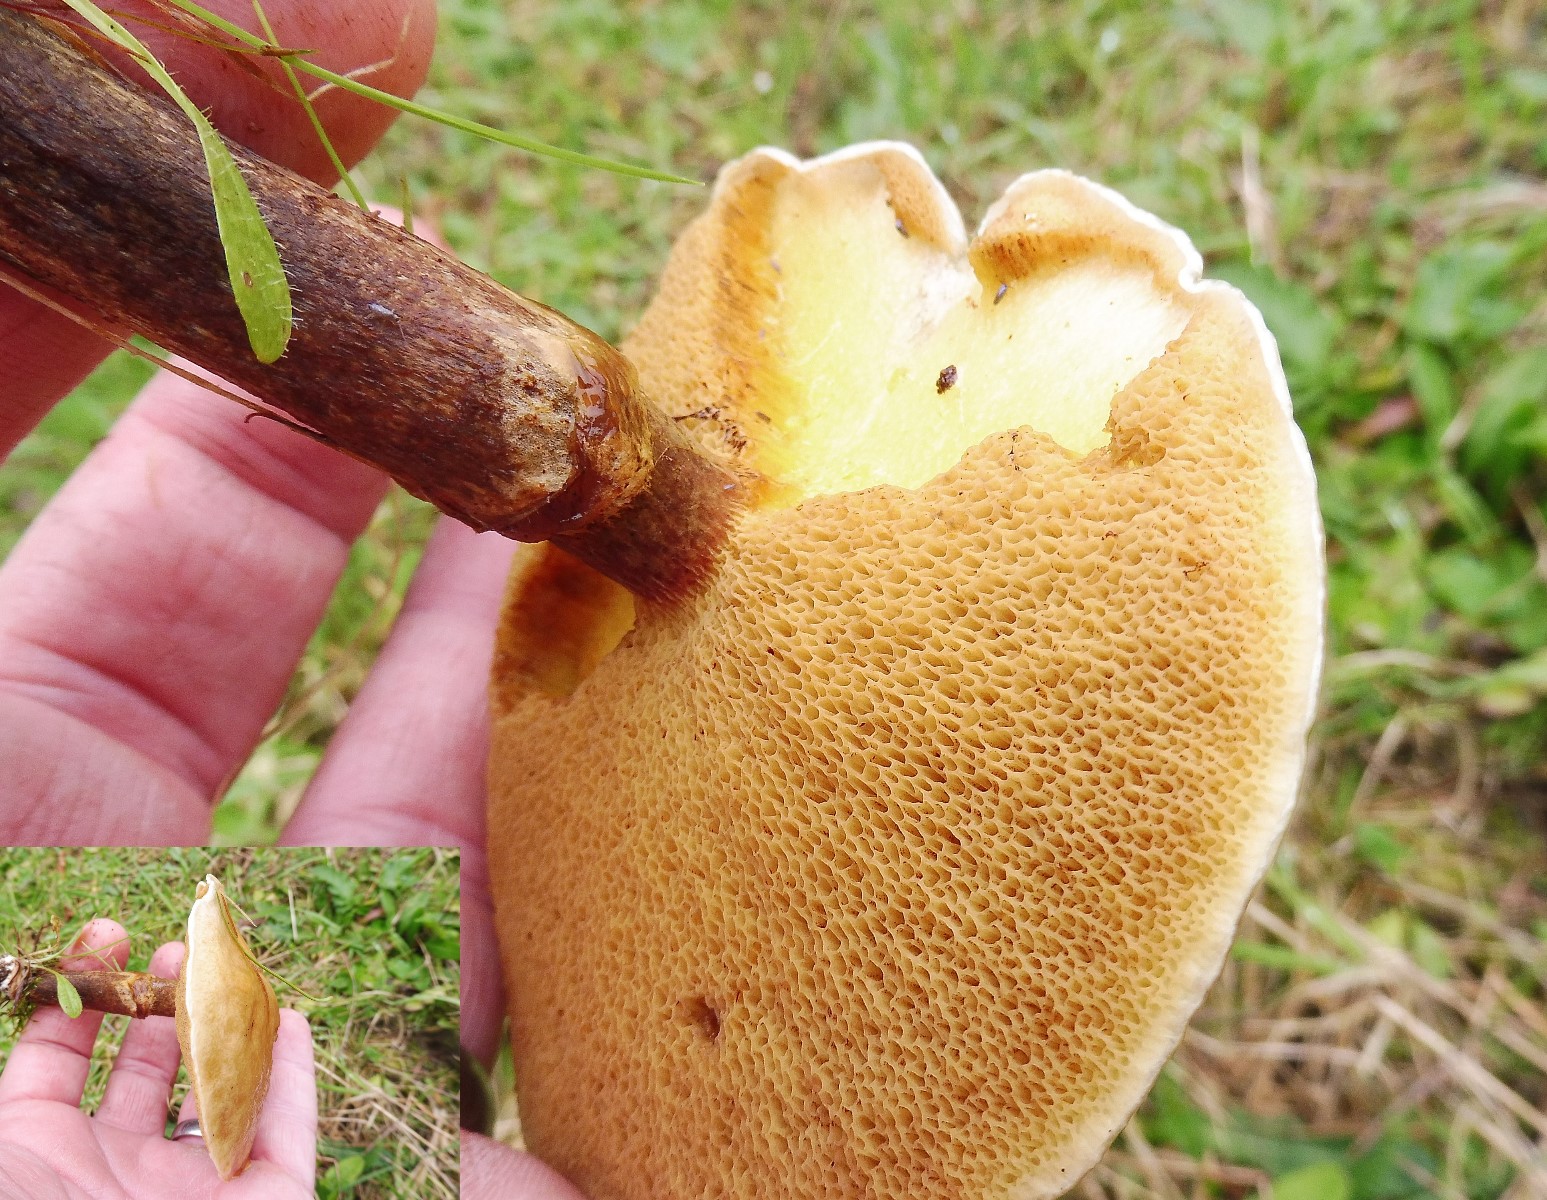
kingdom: Fungi
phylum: Basidiomycota
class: Agaricomycetes
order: Boletales
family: Suillaceae
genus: Suillus
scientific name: Suillus grevillei
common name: lærke-slimrørhat
